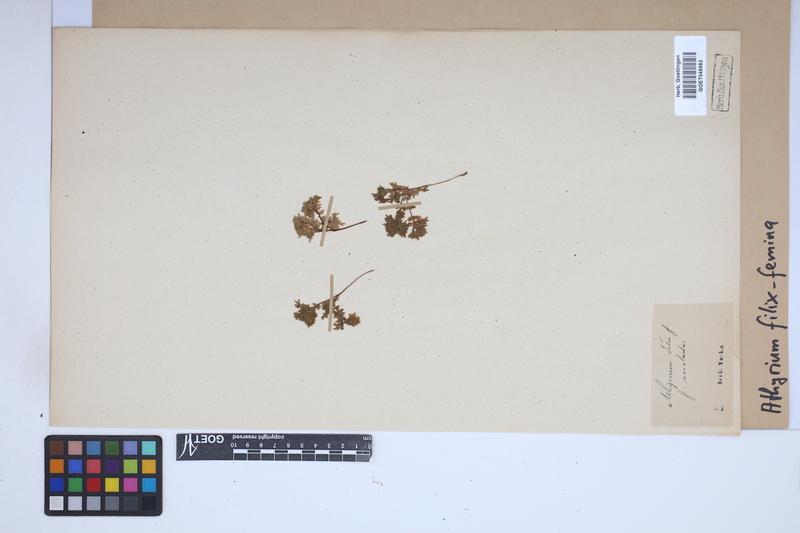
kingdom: Plantae
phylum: Tracheophyta
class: Polypodiopsida
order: Polypodiales
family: Athyriaceae
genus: Athyrium
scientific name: Athyrium filix-femina
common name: Lady fern
